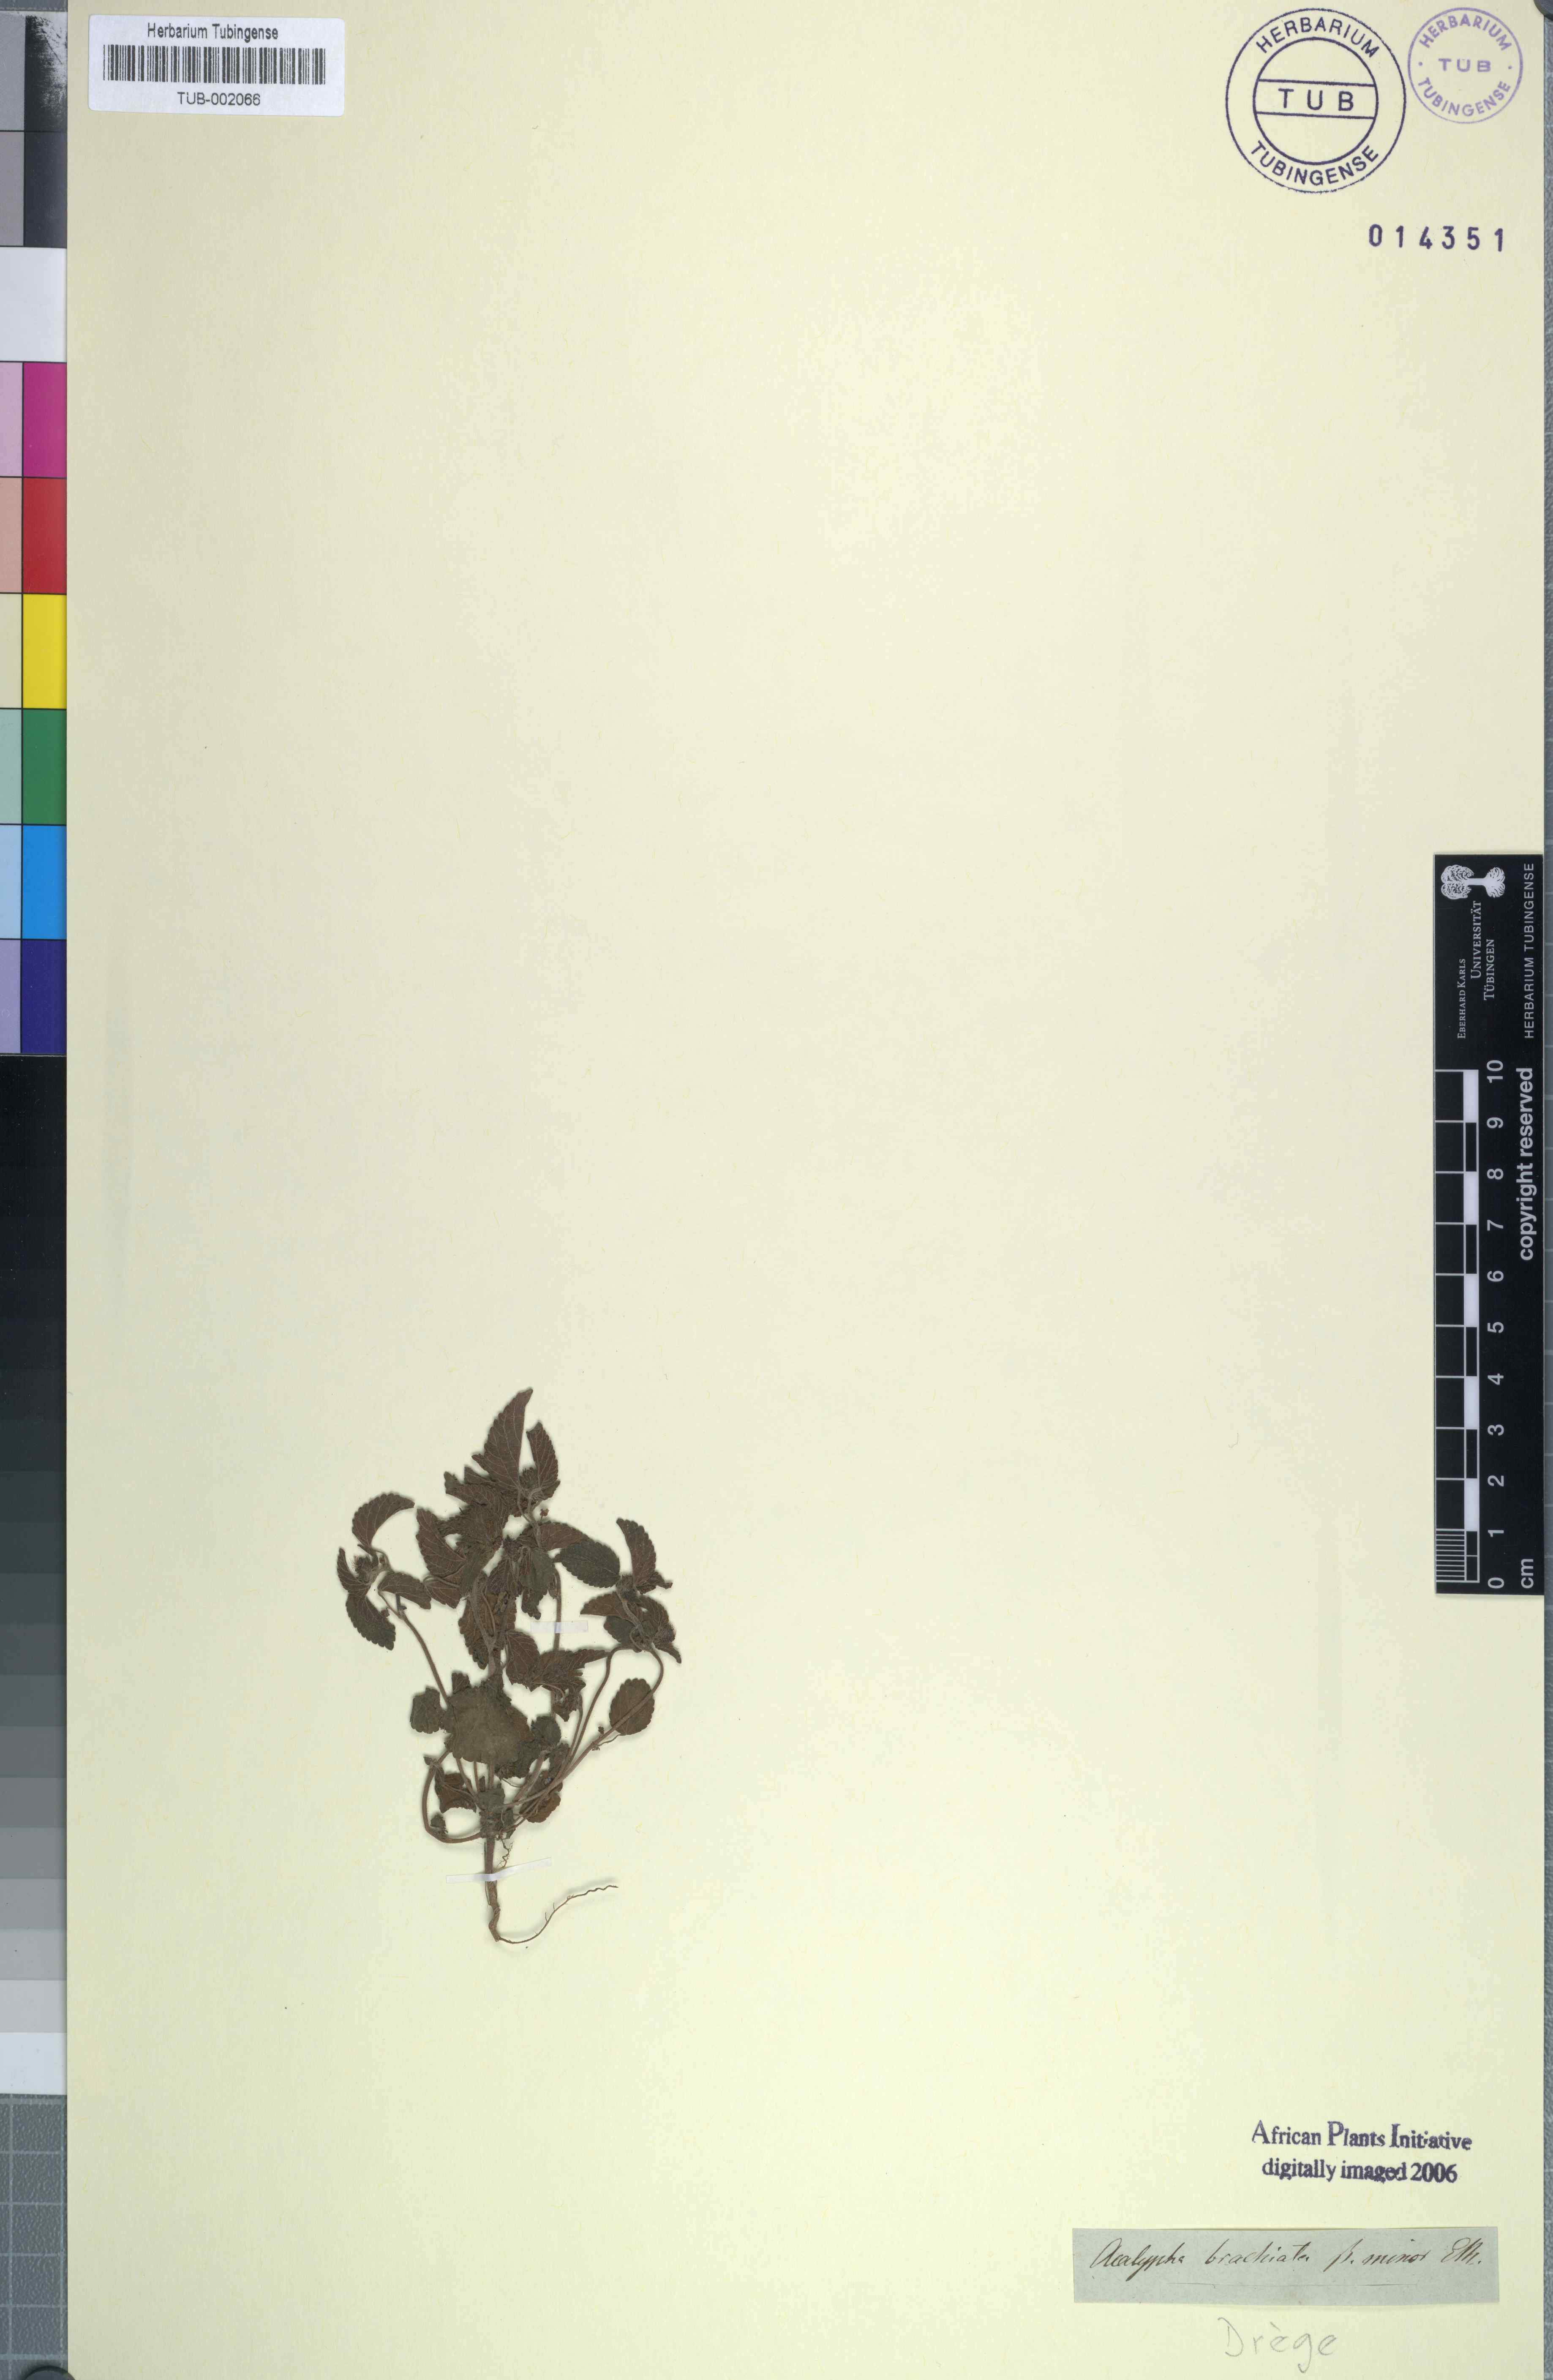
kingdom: Plantae
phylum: Tracheophyta
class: Magnoliopsida
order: Malpighiales
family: Euphorbiaceae
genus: Acalypha
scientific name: Acalypha petiolaris
